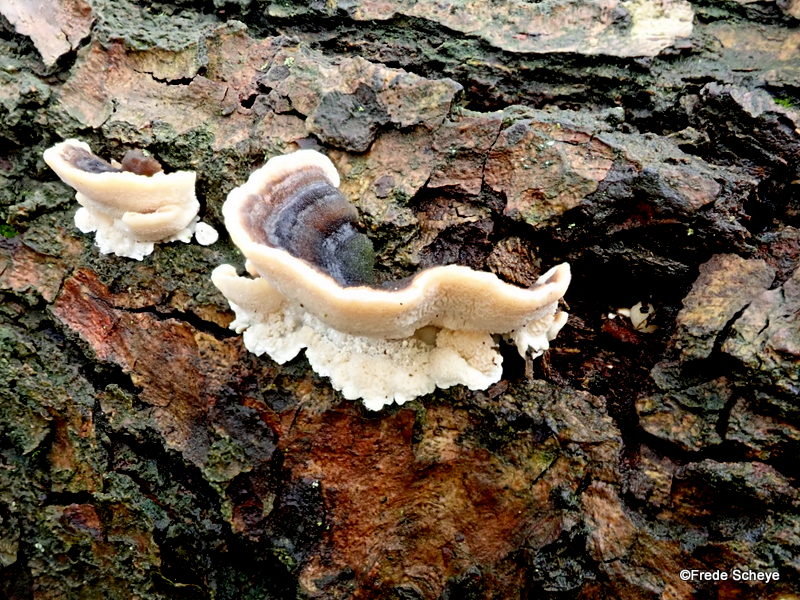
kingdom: Fungi
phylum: Basidiomycota
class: Agaricomycetes
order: Polyporales
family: Polyporaceae
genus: Trametes
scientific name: Trametes versicolor
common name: broget læderporesvamp
